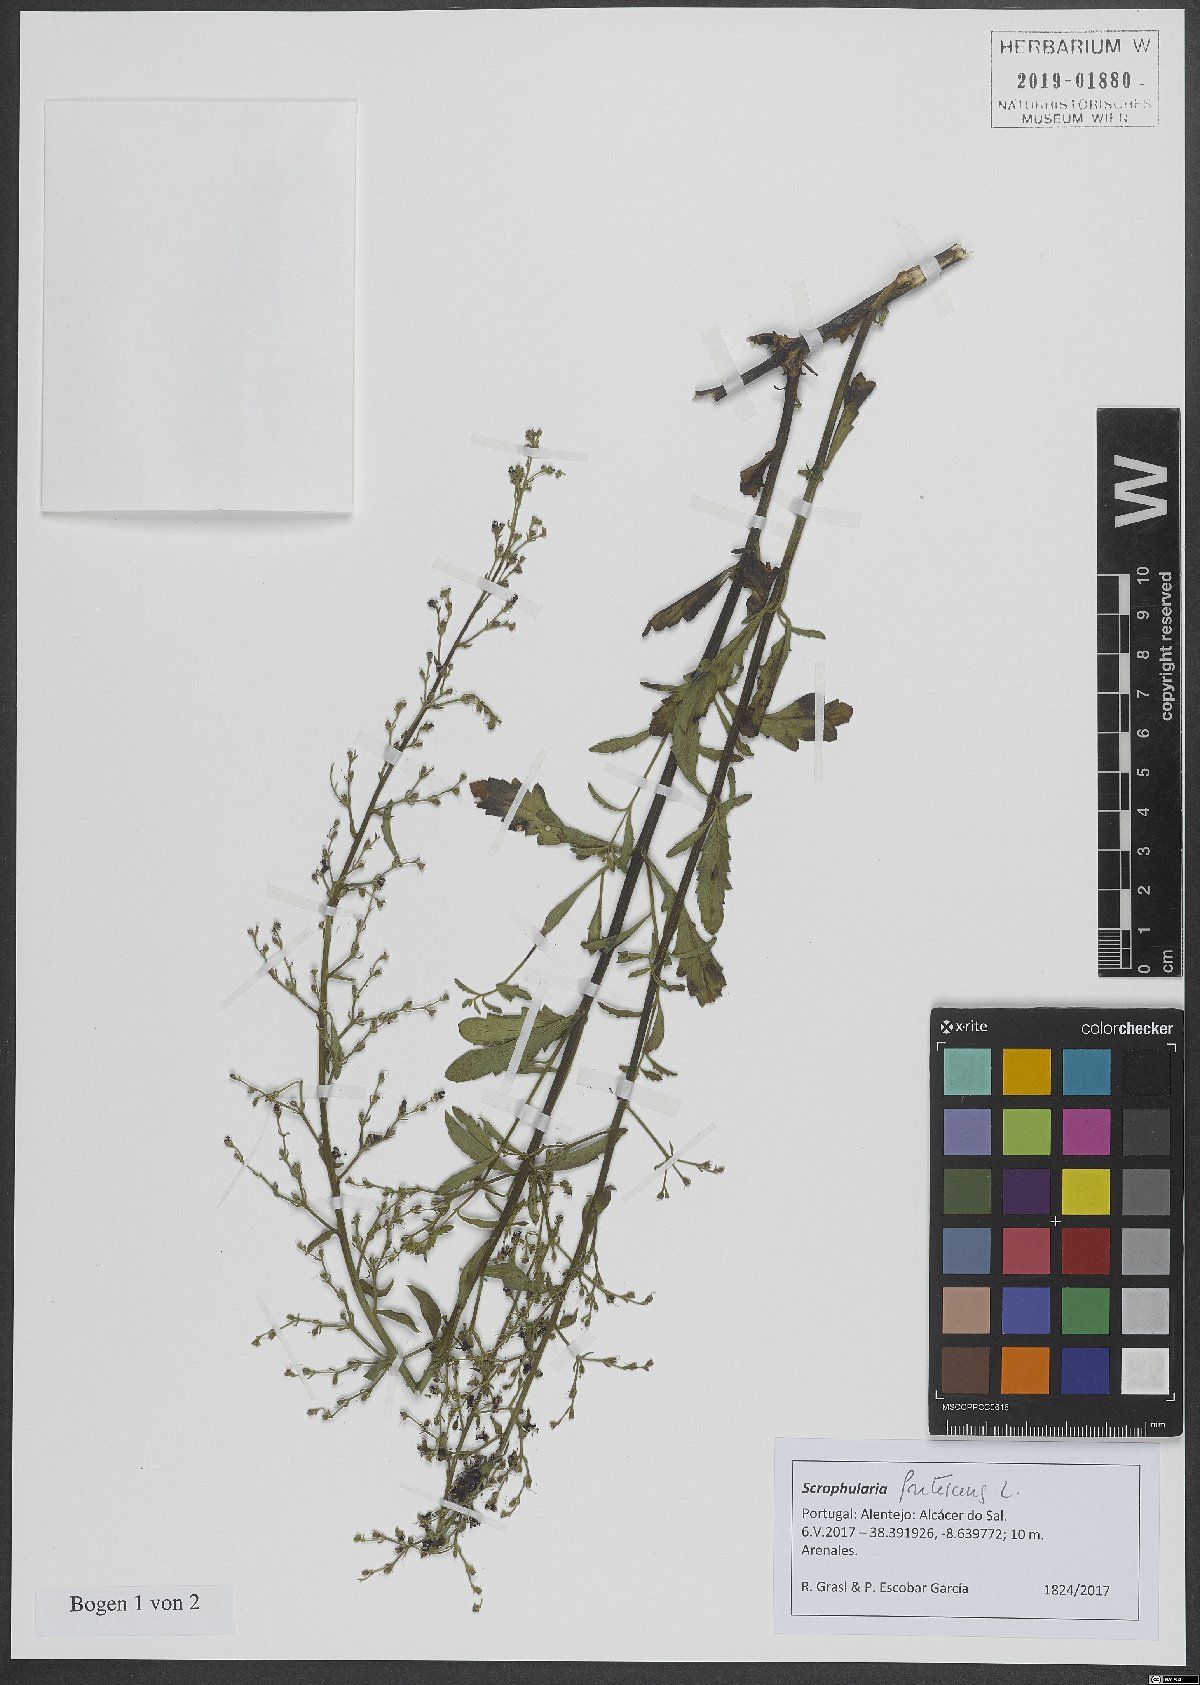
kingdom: Plantae
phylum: Tracheophyta
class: Magnoliopsida
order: Lamiales
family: Scrophulariaceae
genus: Scrophularia
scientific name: Scrophularia frutescens
